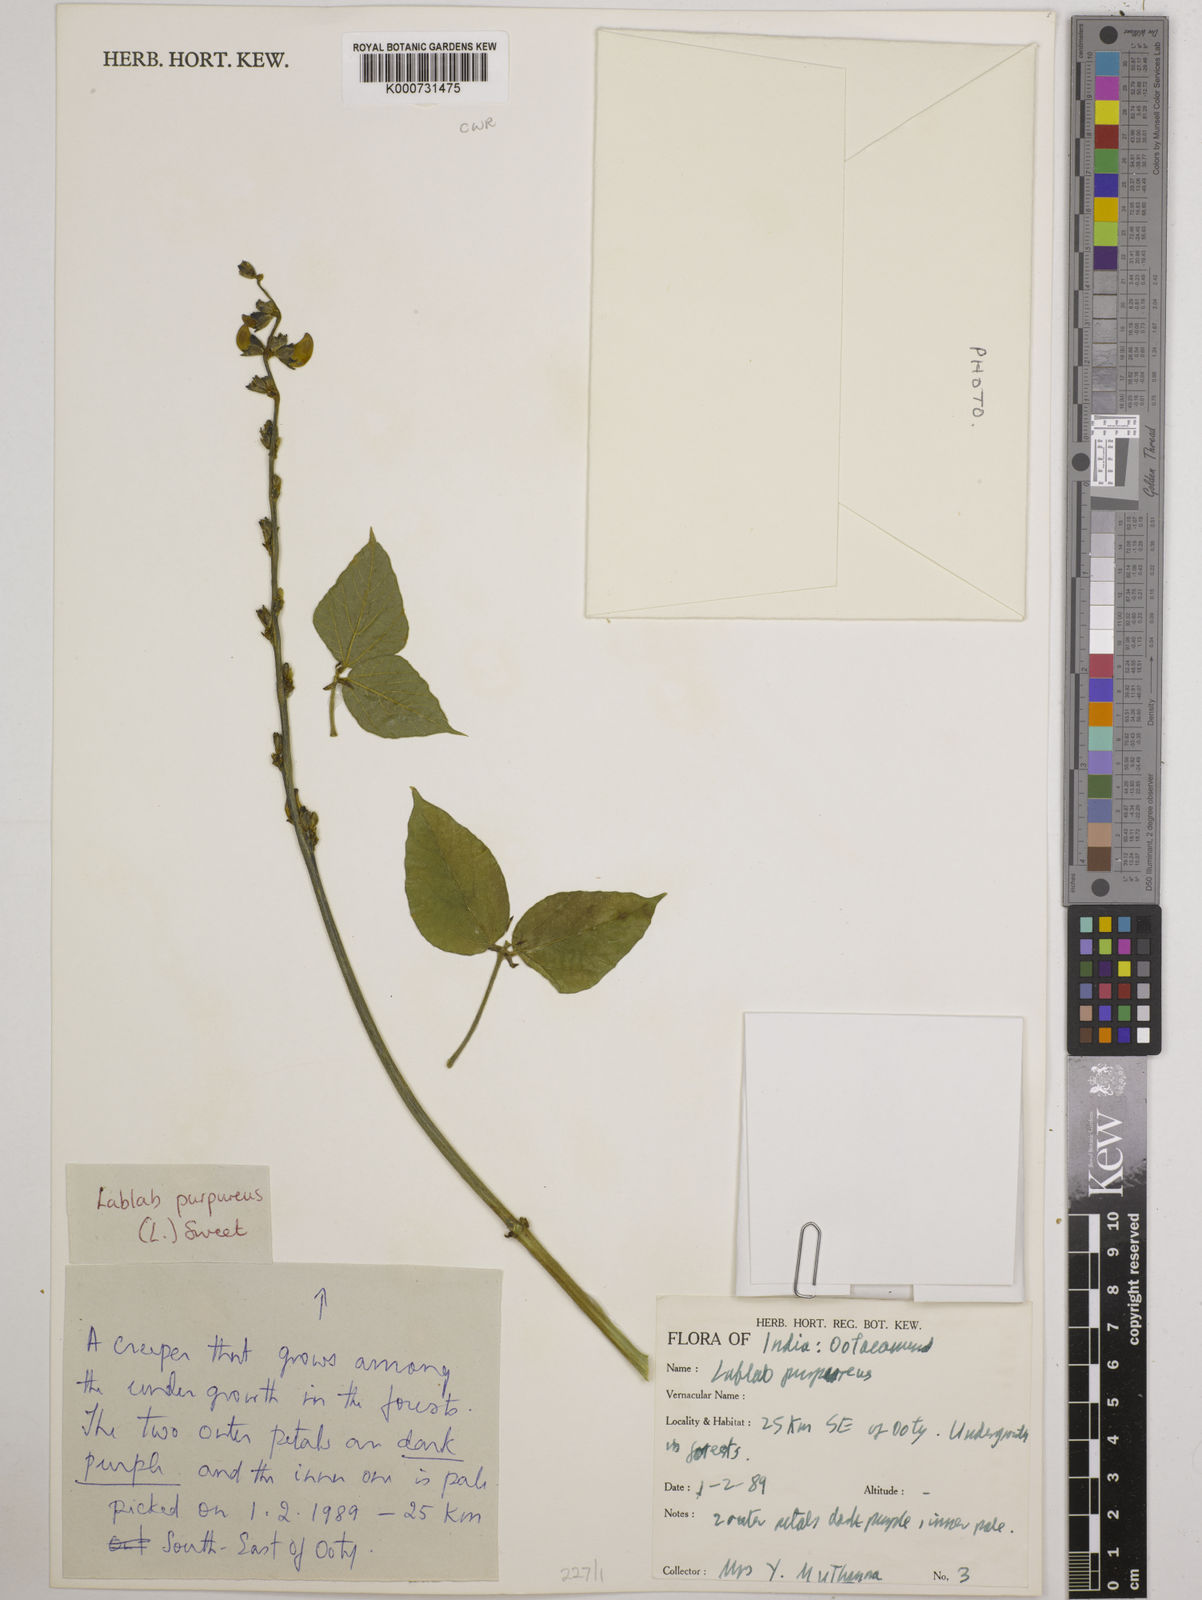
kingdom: Plantae
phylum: Tracheophyta
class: Magnoliopsida
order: Fabales
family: Fabaceae
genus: Lablab
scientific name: Lablab purpureus
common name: Lablab-bean
